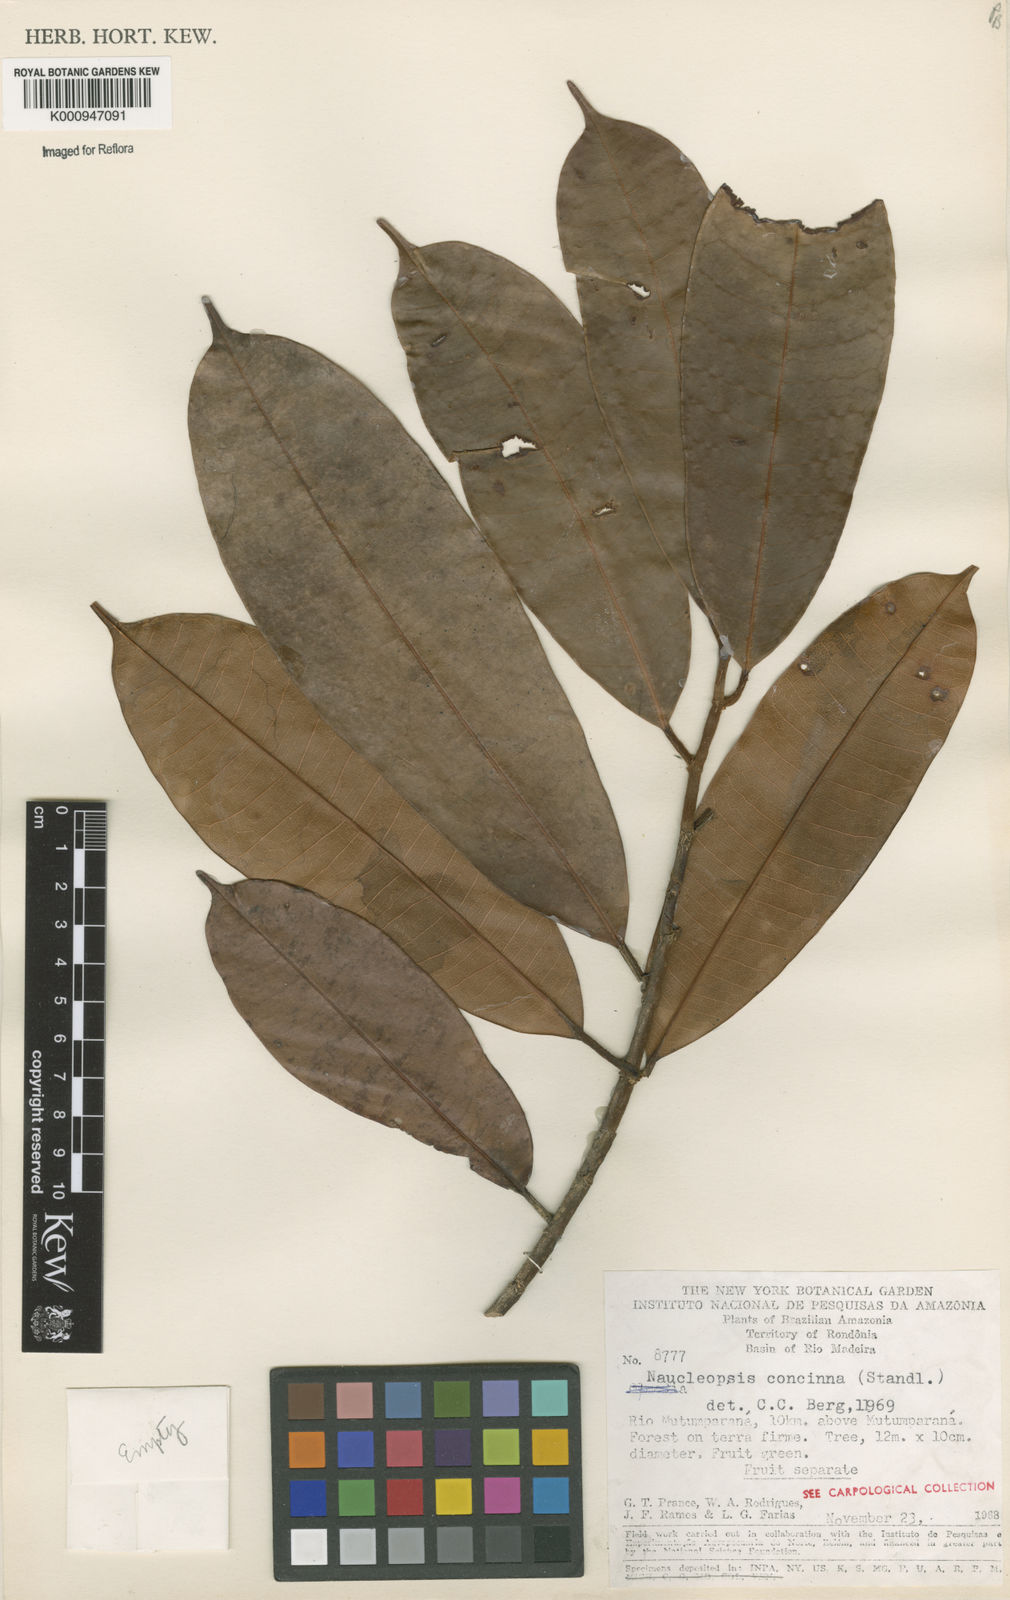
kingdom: Plantae
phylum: Tracheophyta
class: Magnoliopsida
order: Rosales
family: Moraceae
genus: Naucleopsis
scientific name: Naucleopsis concinna
